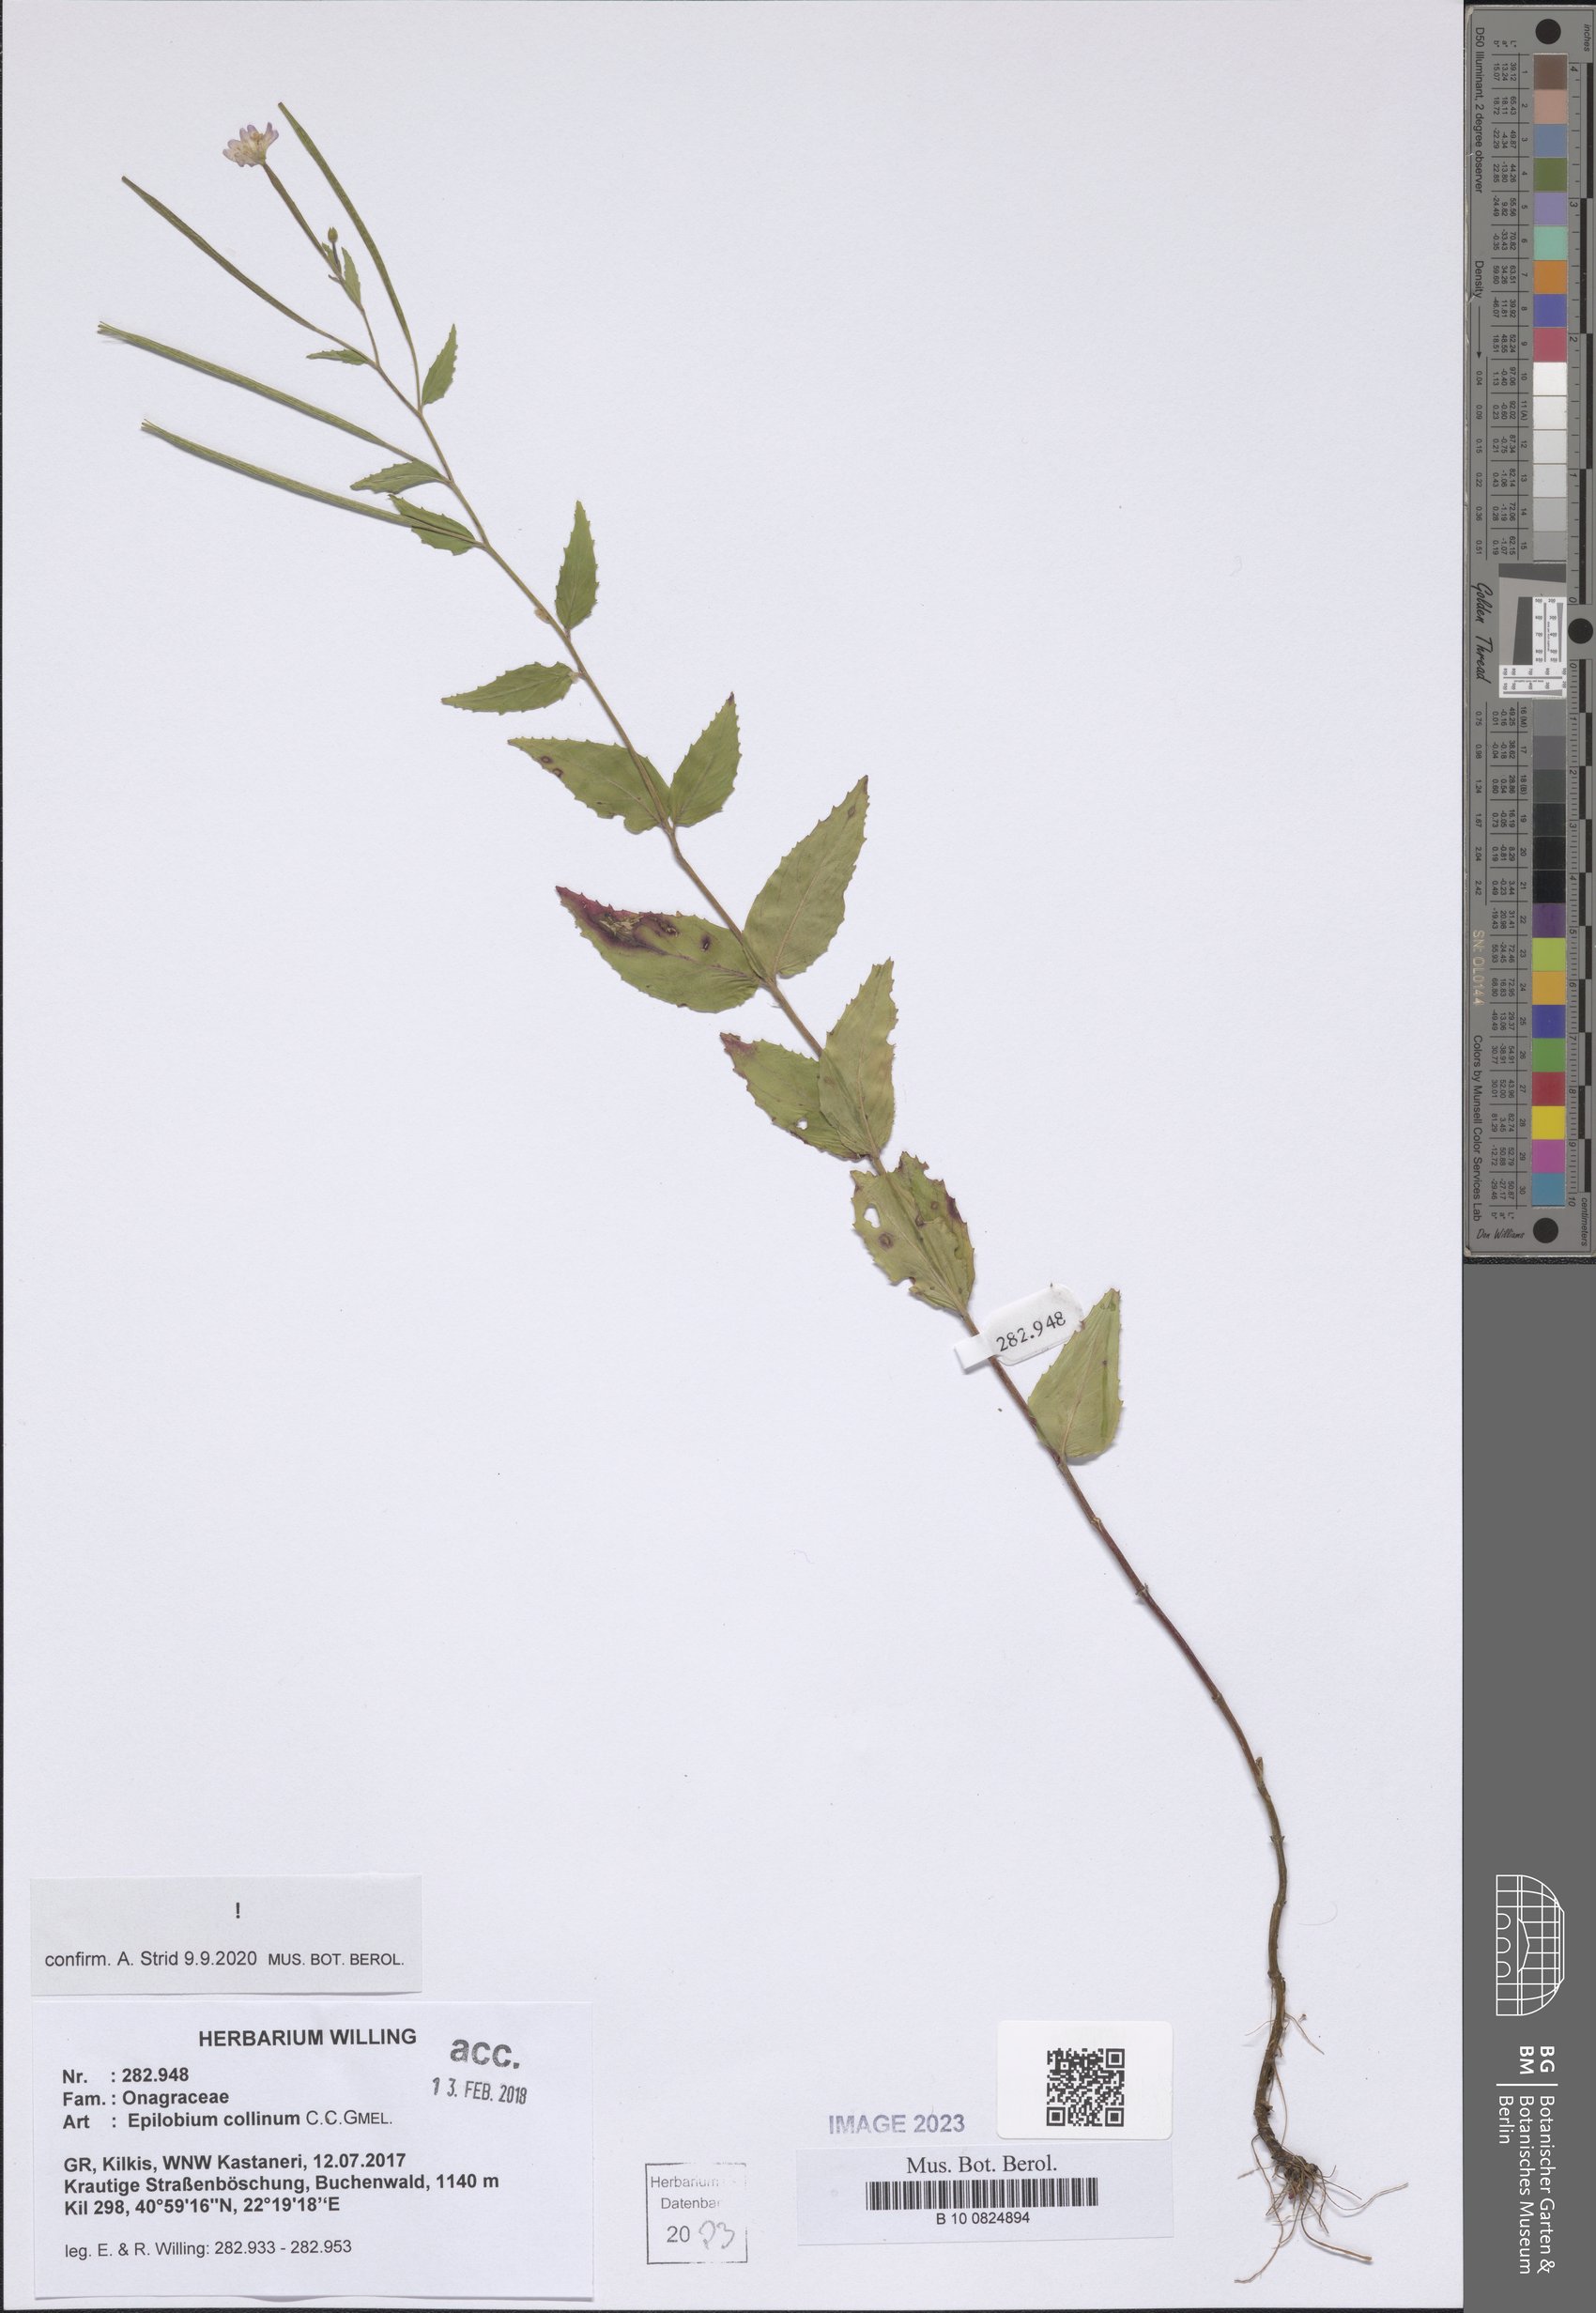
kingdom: Plantae
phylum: Tracheophyta
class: Magnoliopsida
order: Myrtales
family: Onagraceae
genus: Epilobium
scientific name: Epilobium collinum
